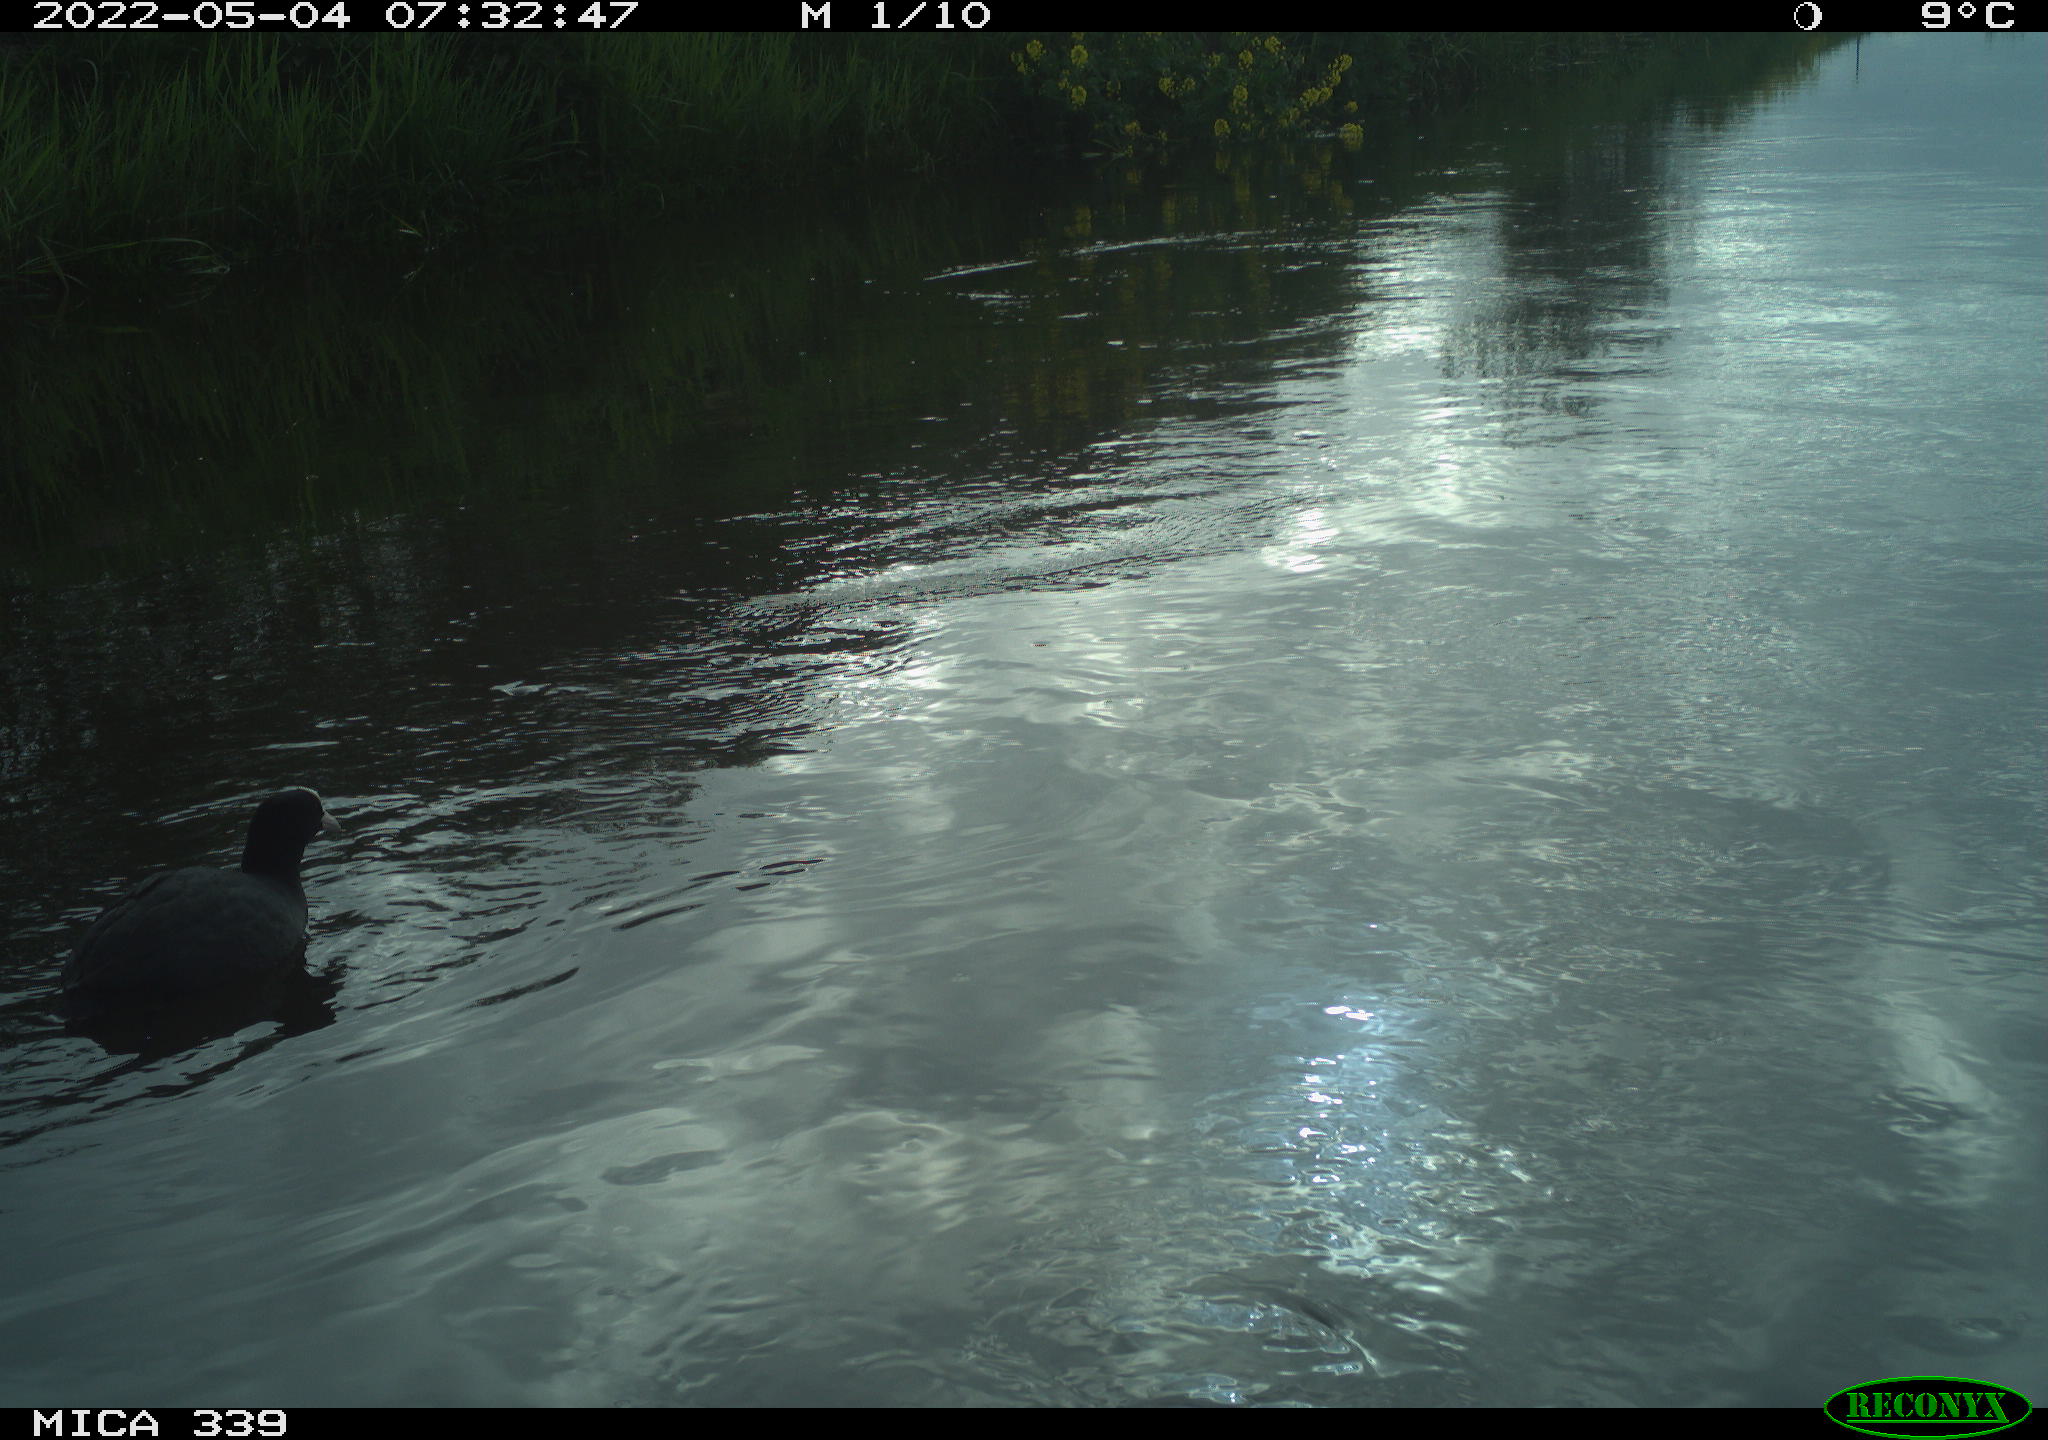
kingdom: Animalia
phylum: Chordata
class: Aves
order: Gruiformes
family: Rallidae
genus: Fulica
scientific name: Fulica atra
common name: Eurasian coot
